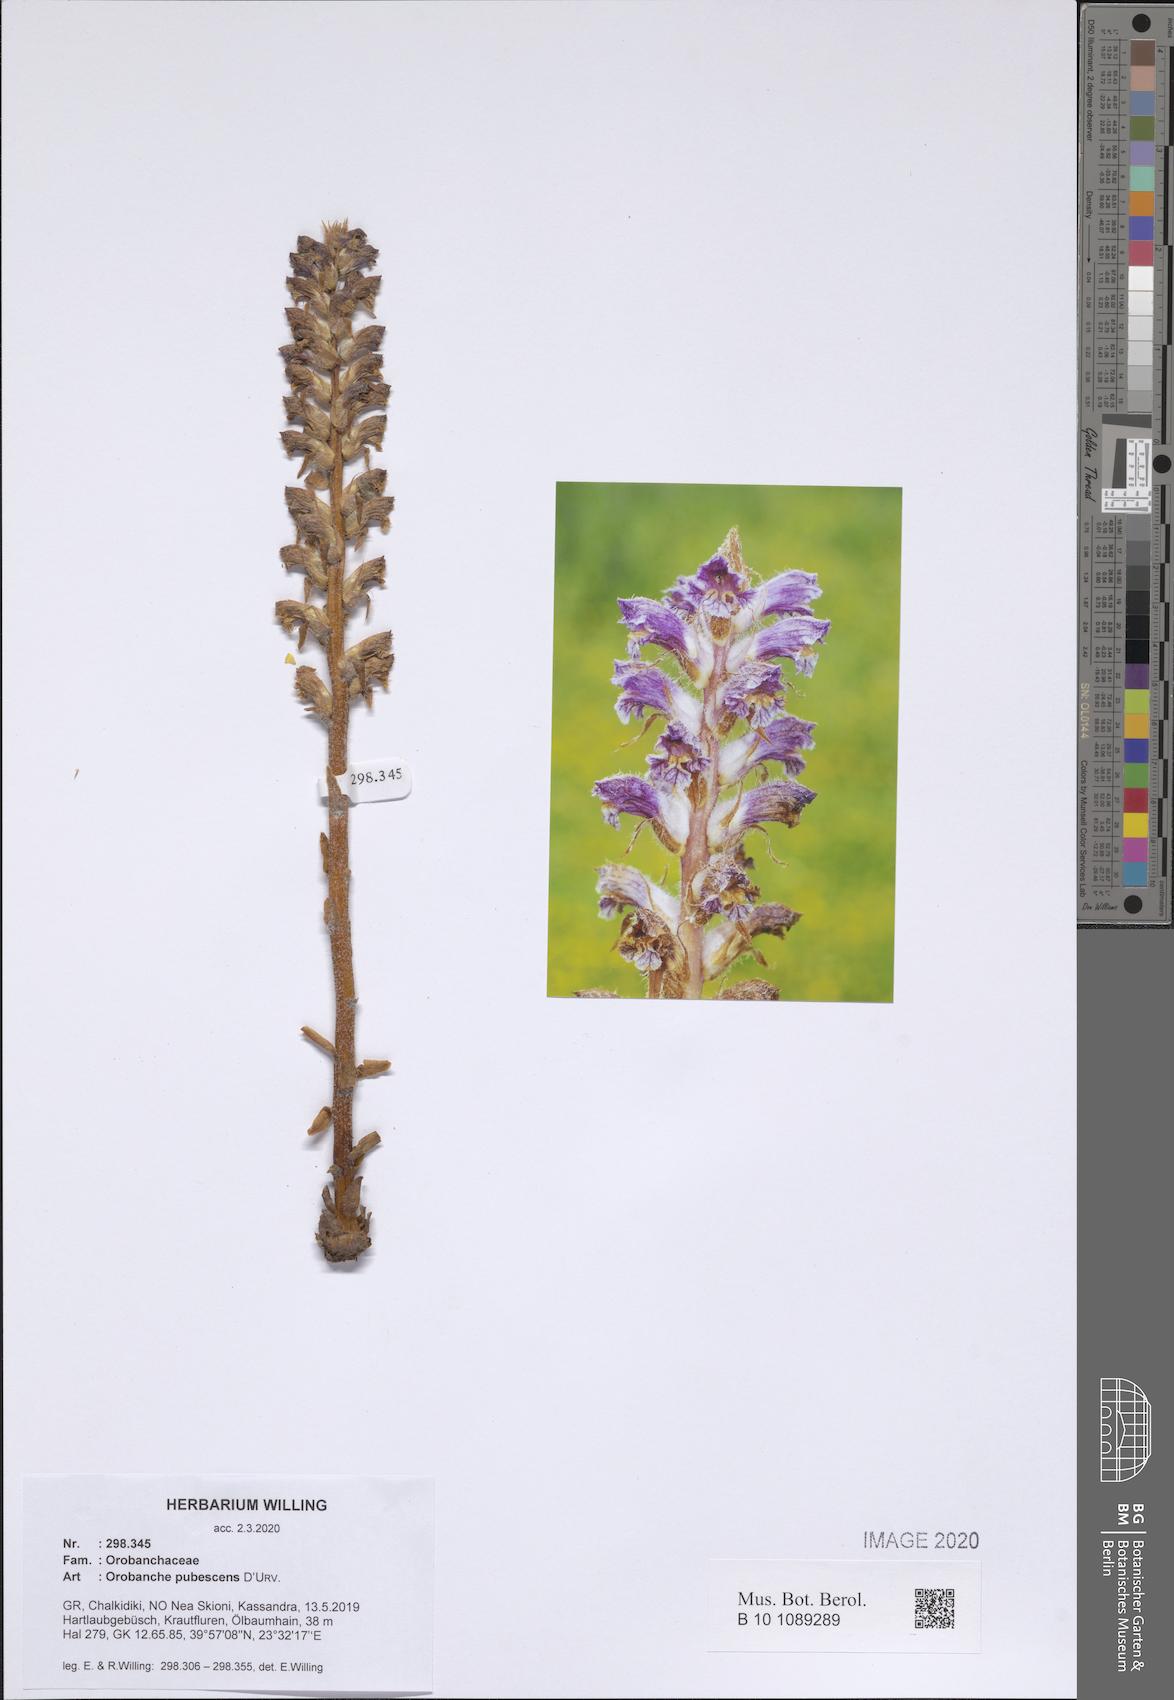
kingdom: Plantae
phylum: Tracheophyta
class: Magnoliopsida
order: Lamiales
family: Orobanchaceae
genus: Orobanche
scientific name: Orobanche pubescens
